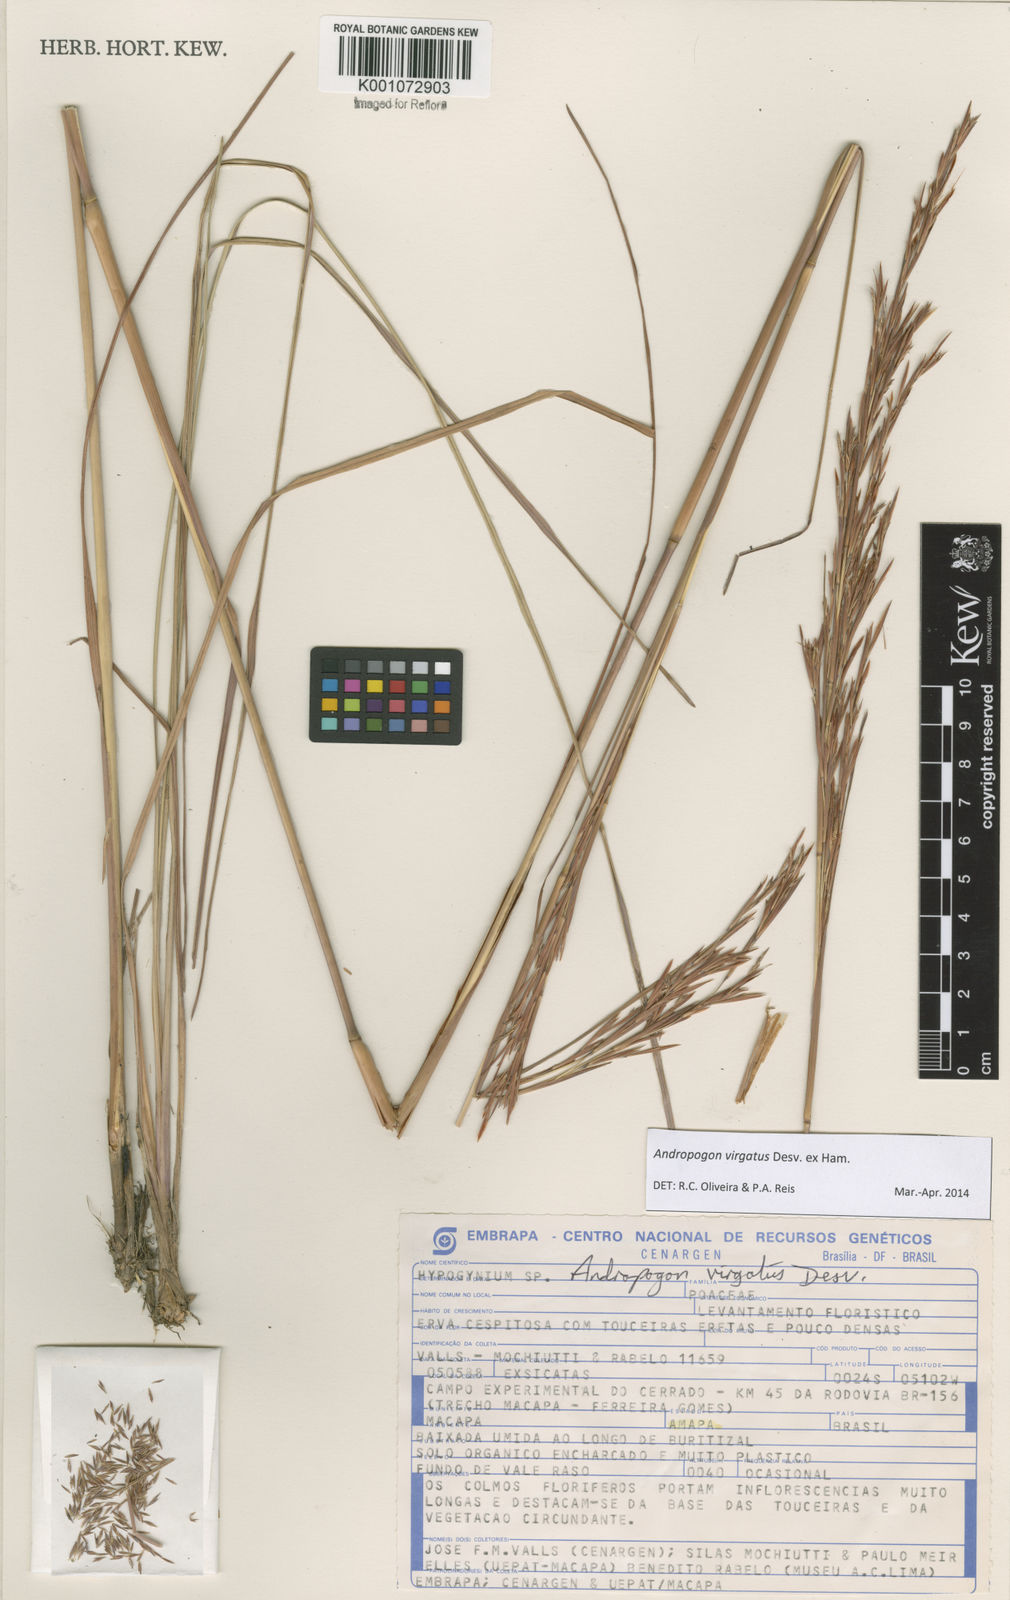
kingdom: Plantae
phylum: Tracheophyta
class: Liliopsida
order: Poales
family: Poaceae
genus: Andropogon
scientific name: Andropogon virgatus
